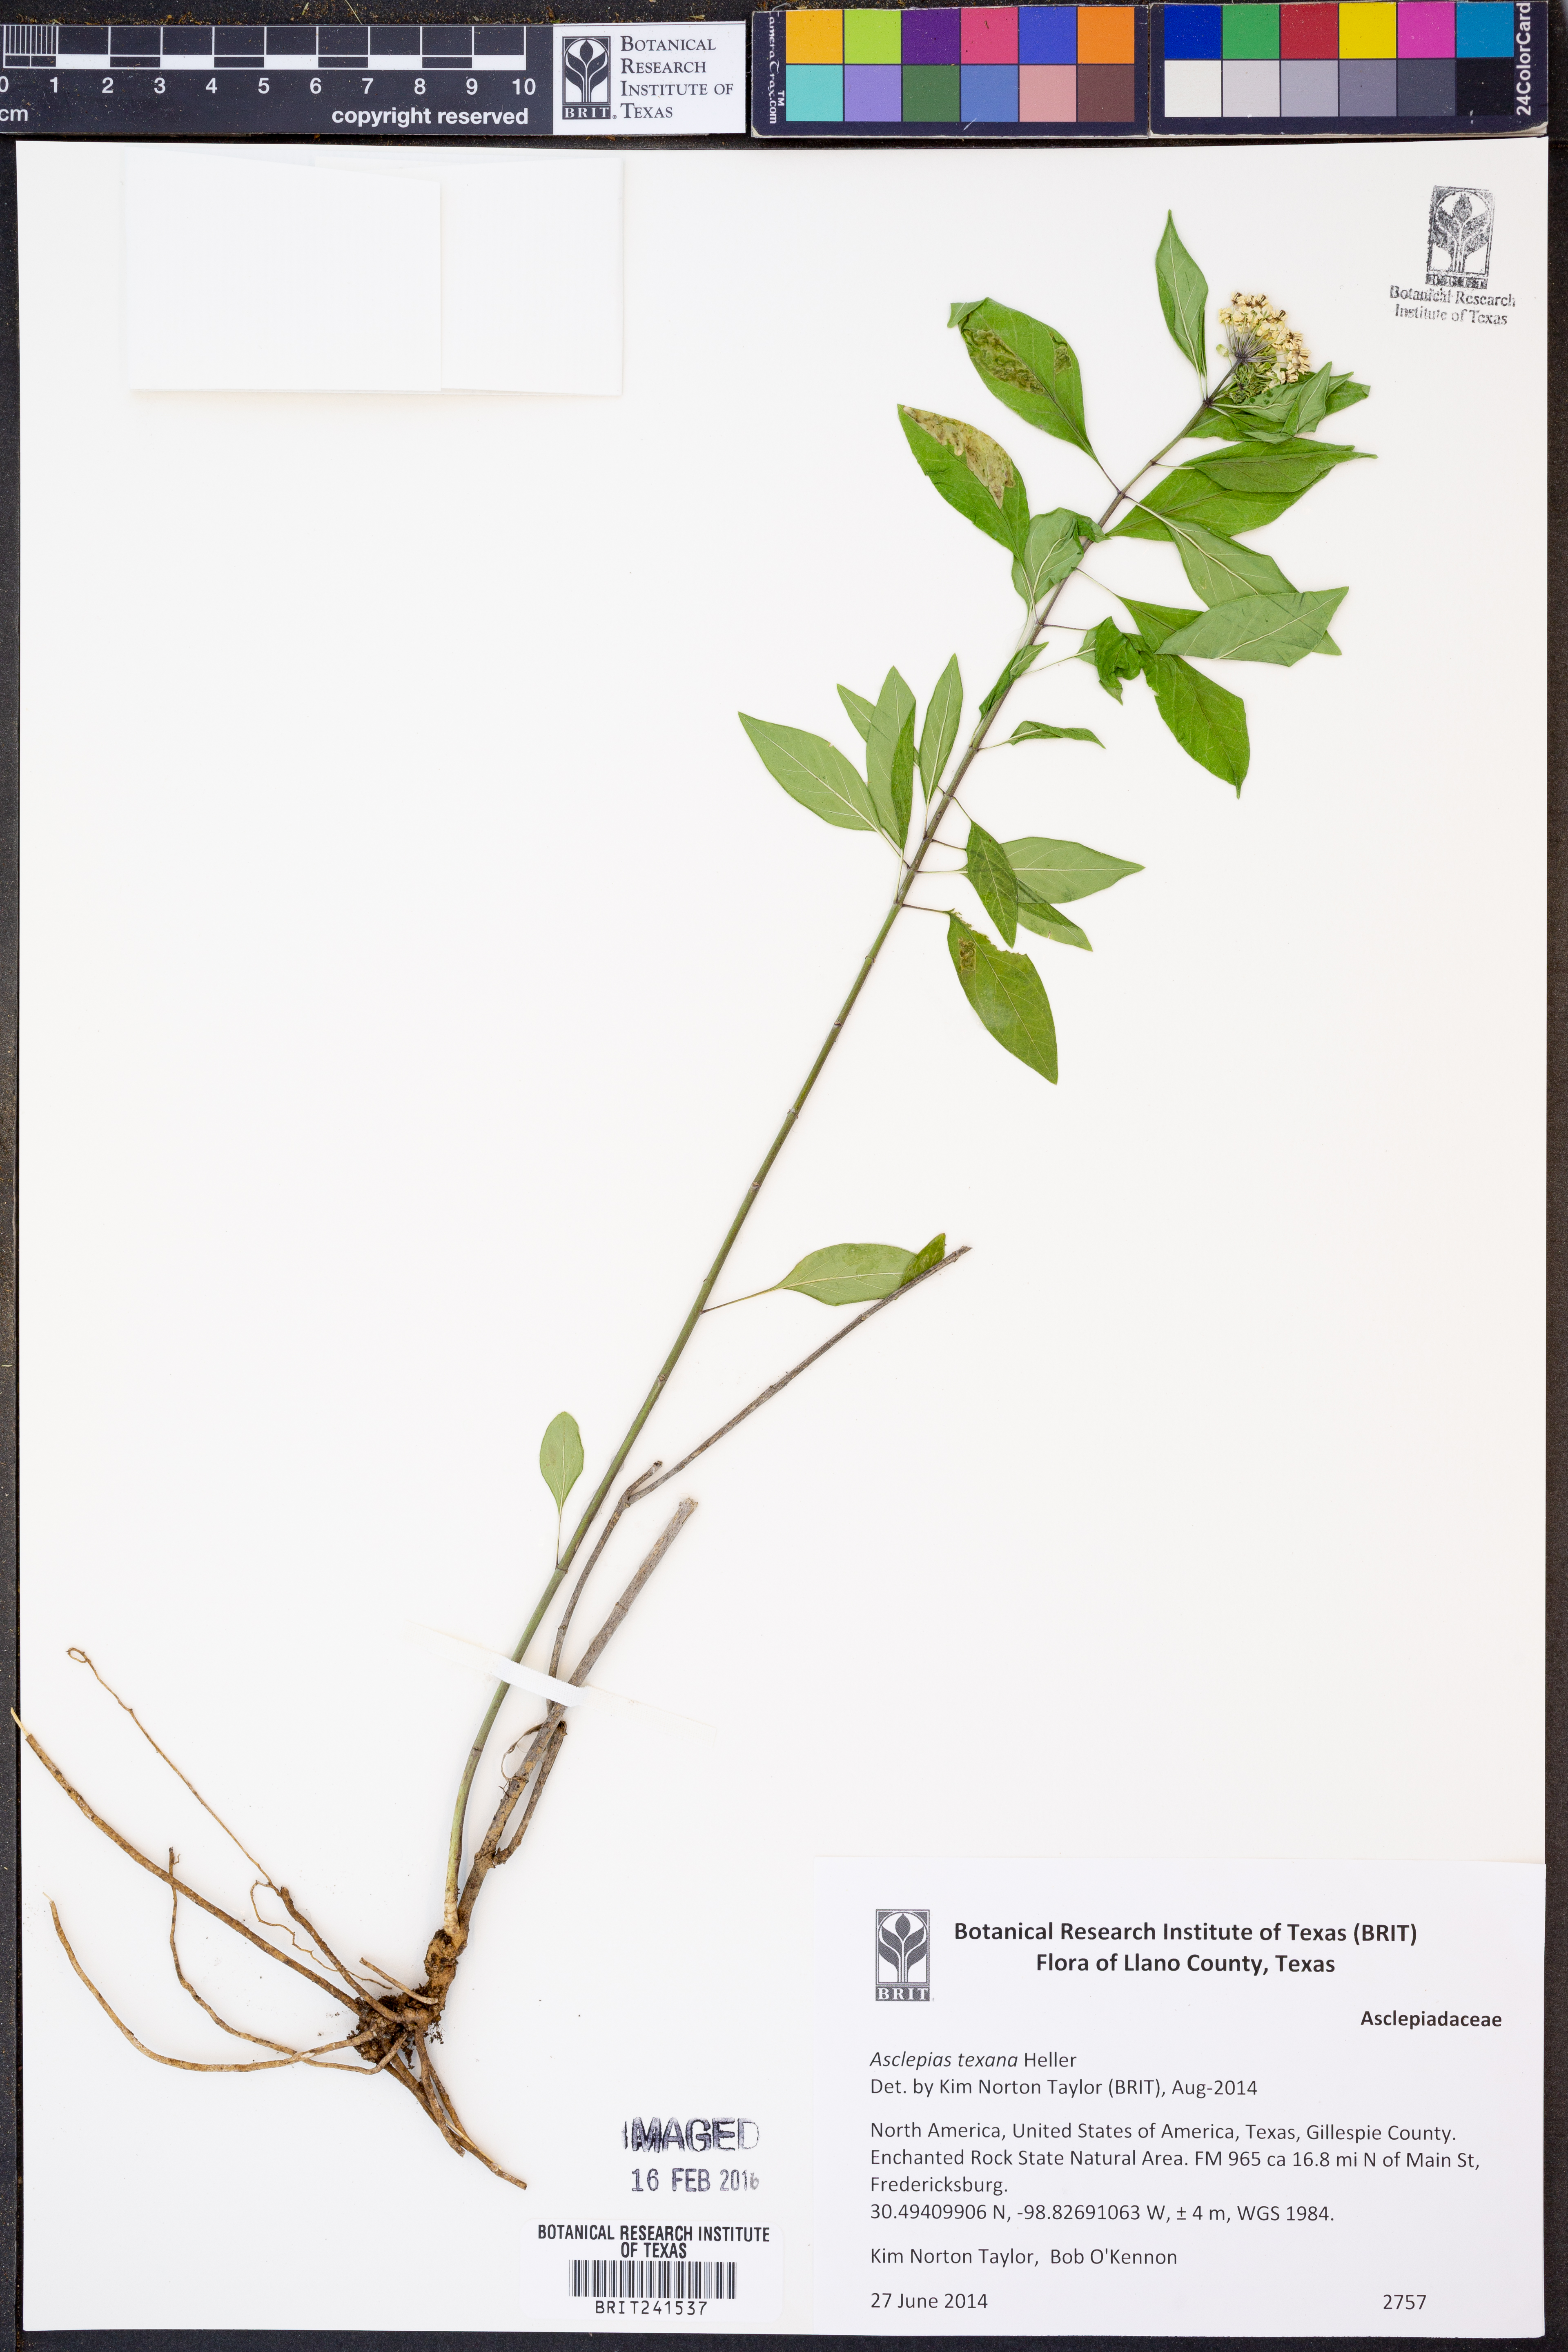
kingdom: Plantae
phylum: Tracheophyta
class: Magnoliopsida
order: Gentianales
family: Apocynaceae
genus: Asclepias
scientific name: Asclepias texana
